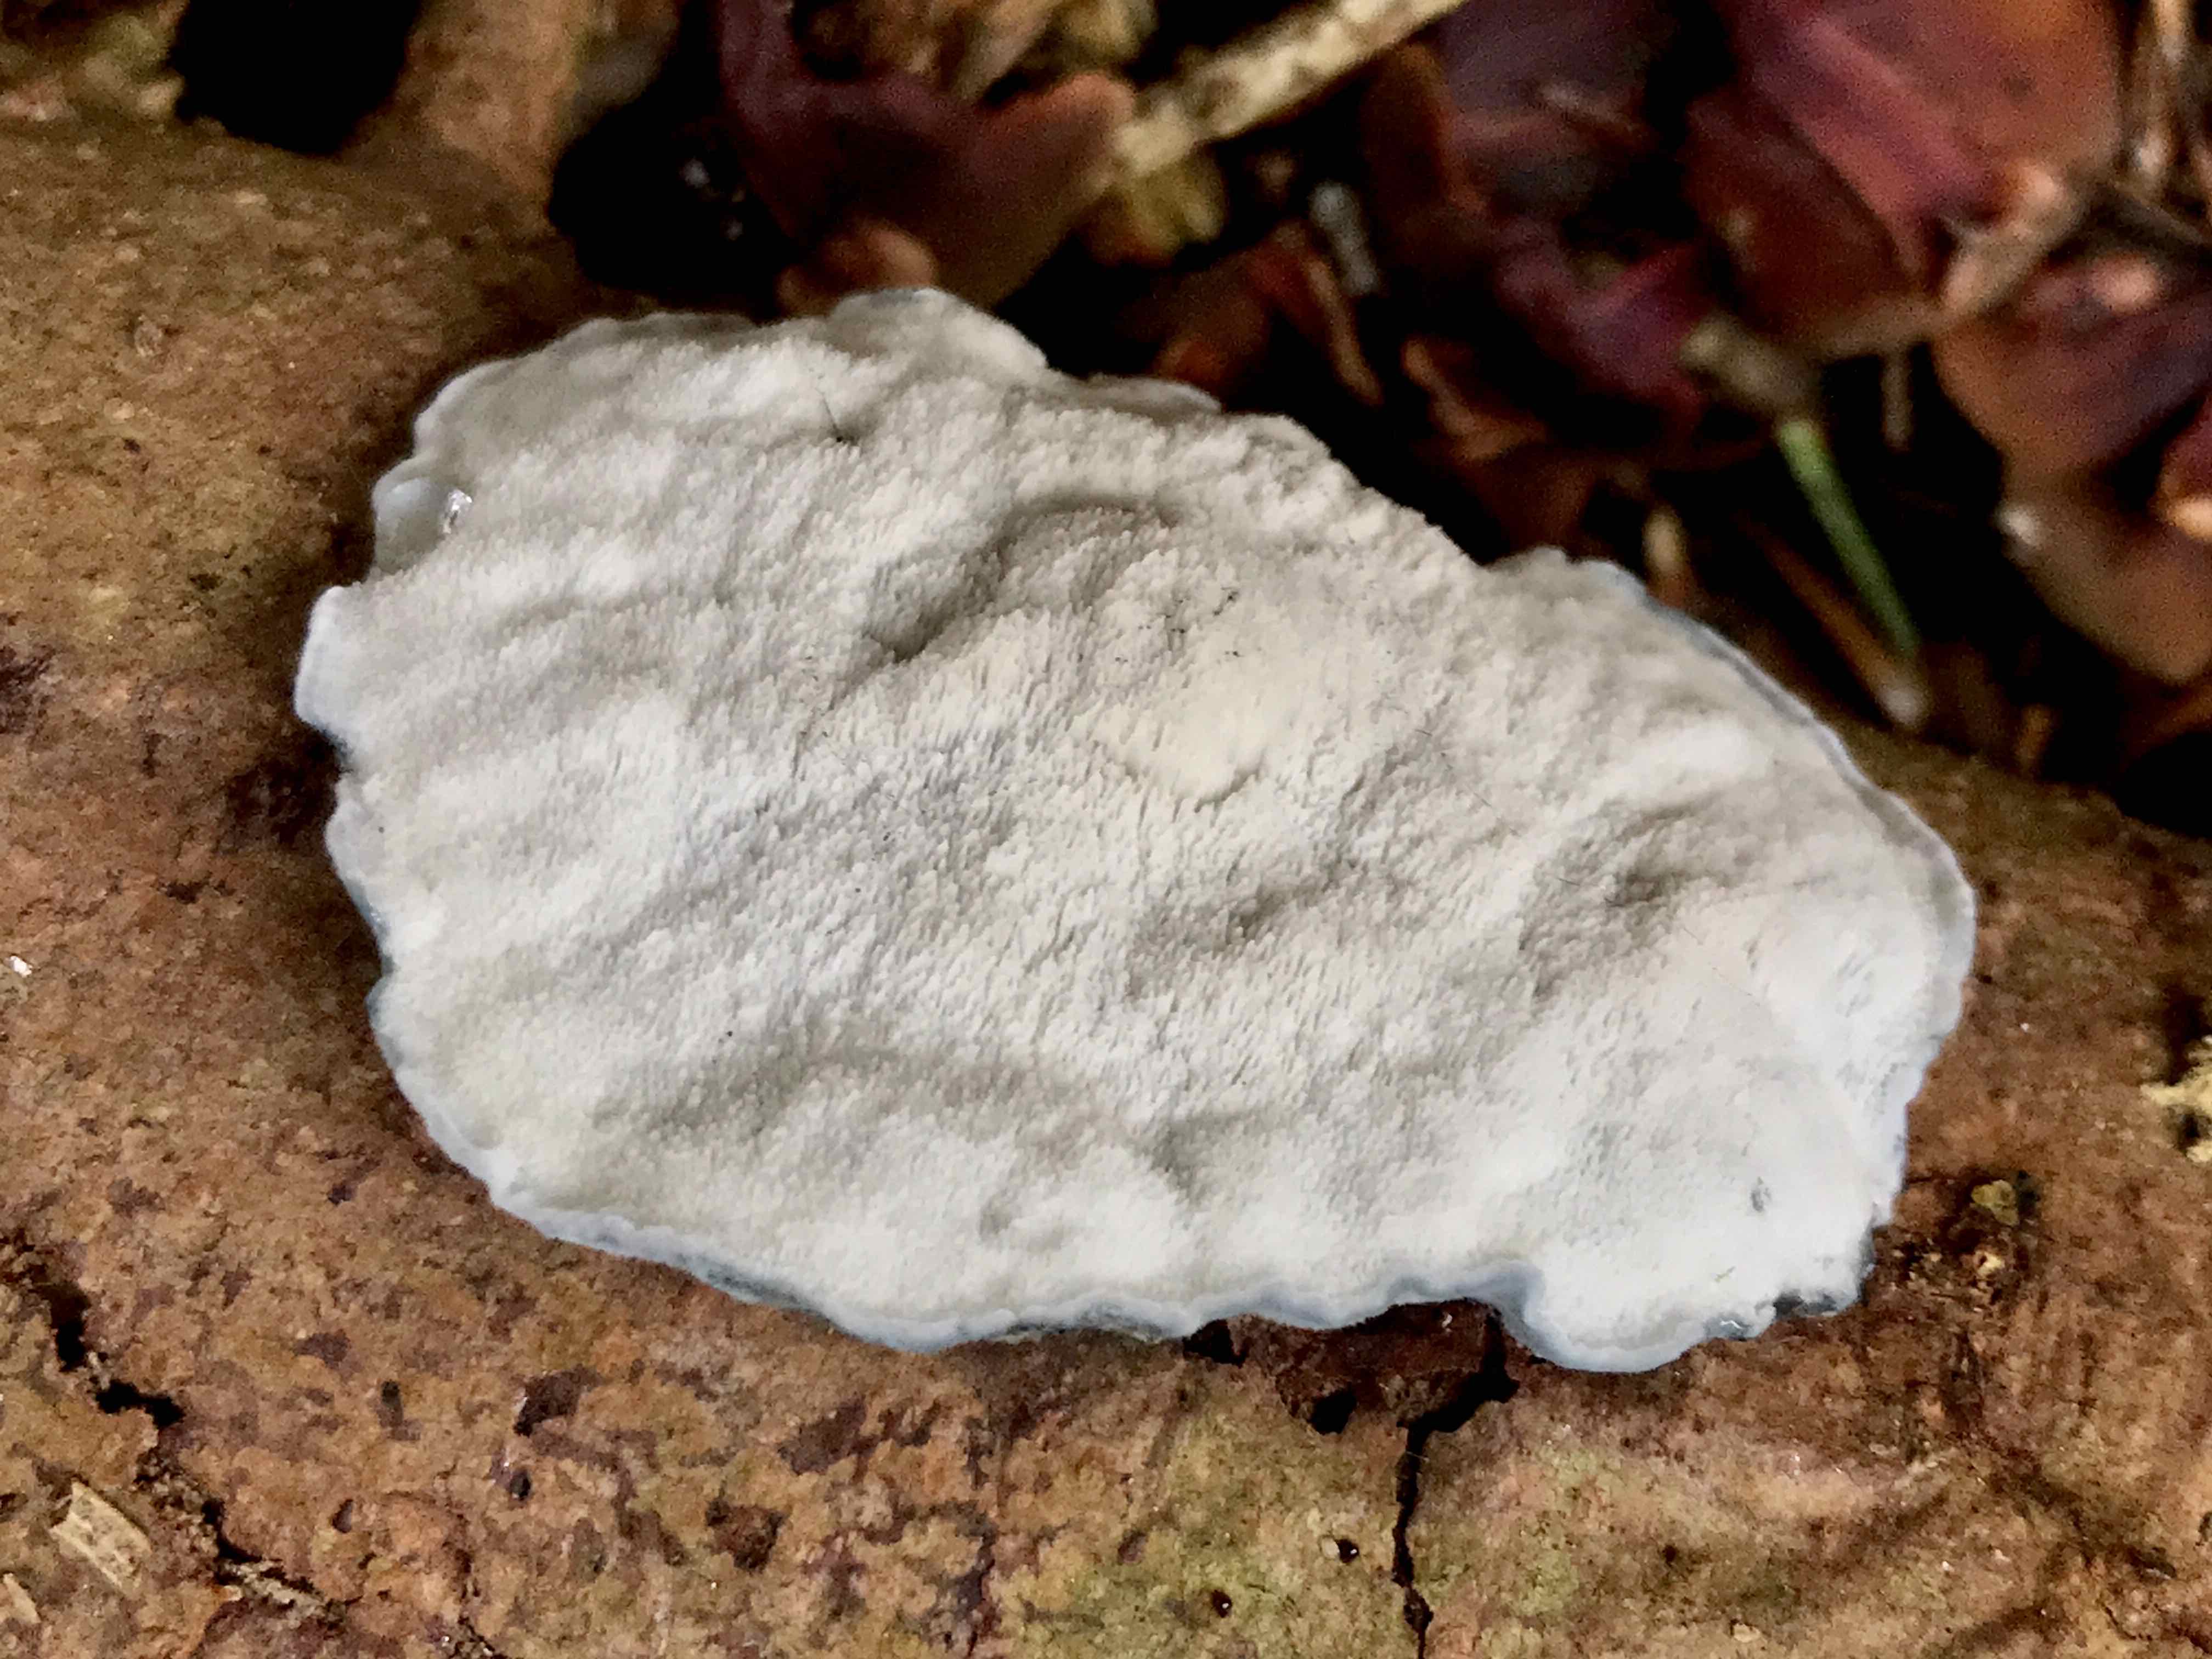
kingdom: Fungi
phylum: Basidiomycota
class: Agaricomycetes
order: Polyporales
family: Polyporaceae
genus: Cyanosporus
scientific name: Cyanosporus caesius
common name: blålig kødporesvamp
